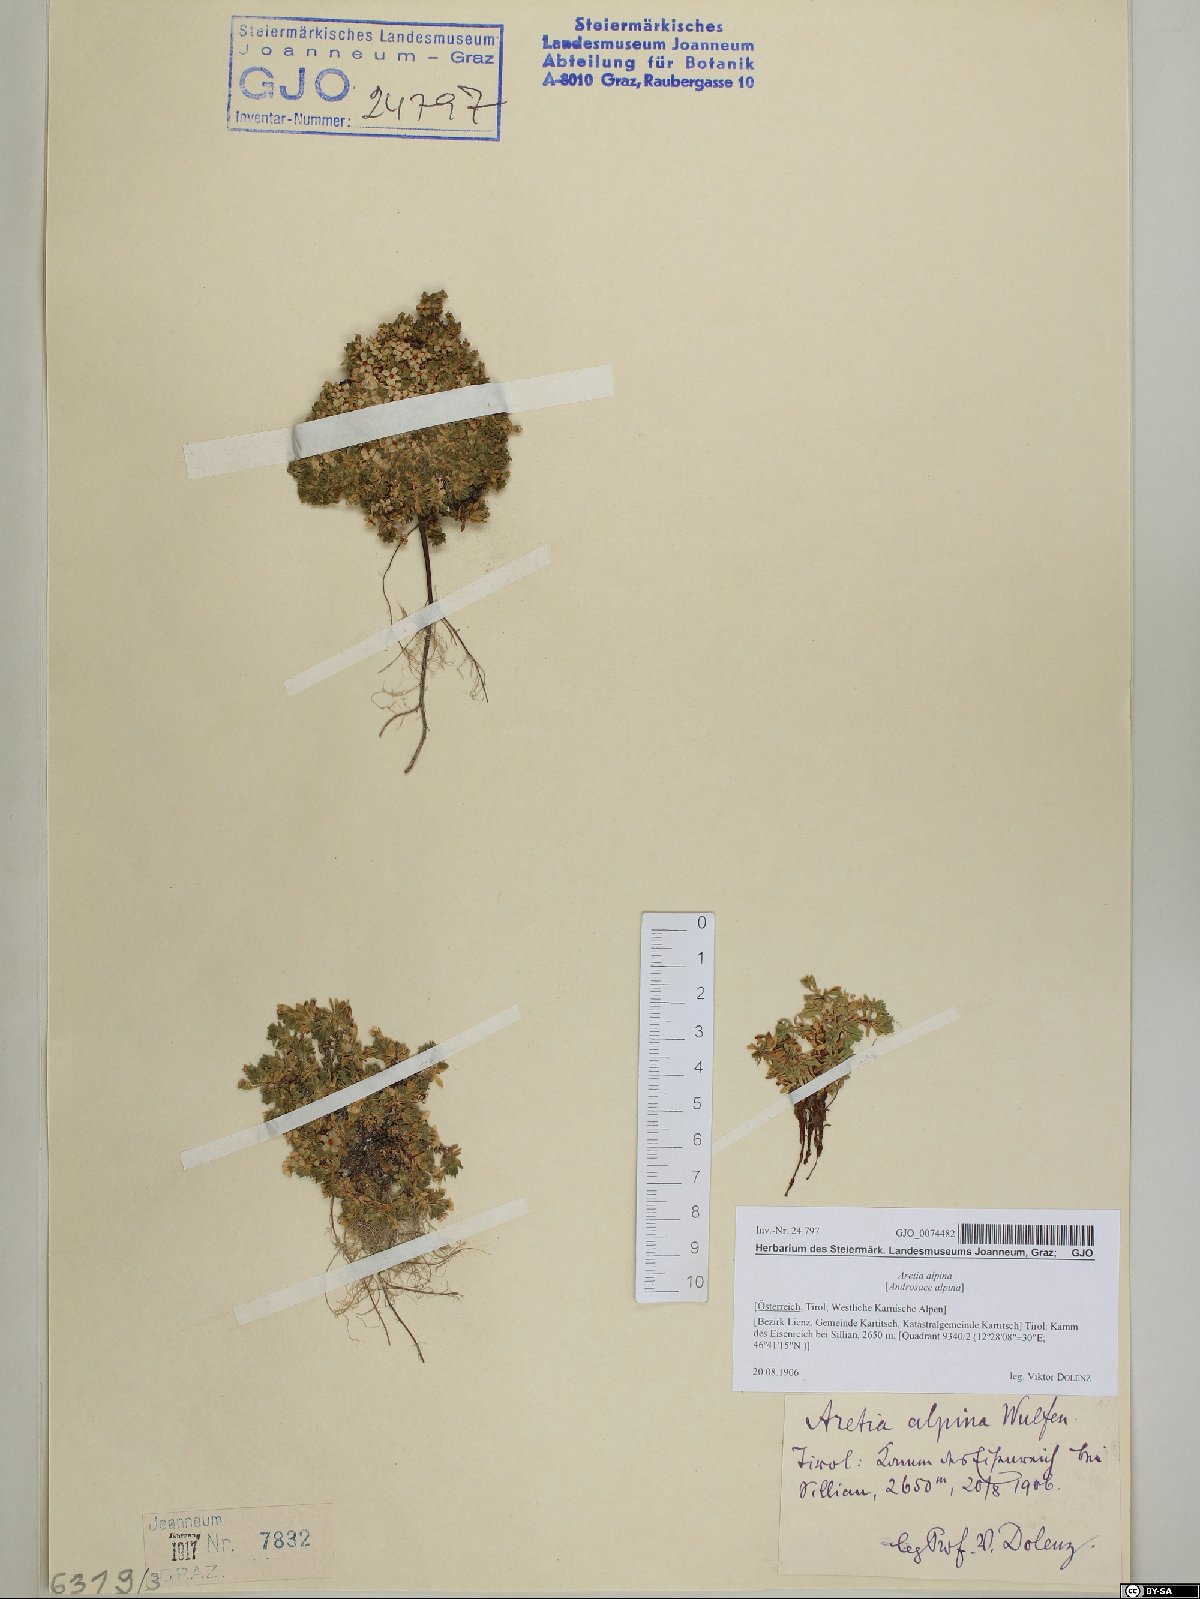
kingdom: Plantae
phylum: Tracheophyta
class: Magnoliopsida
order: Ericales
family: Primulaceae
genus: Androsace
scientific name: Androsace alpina
